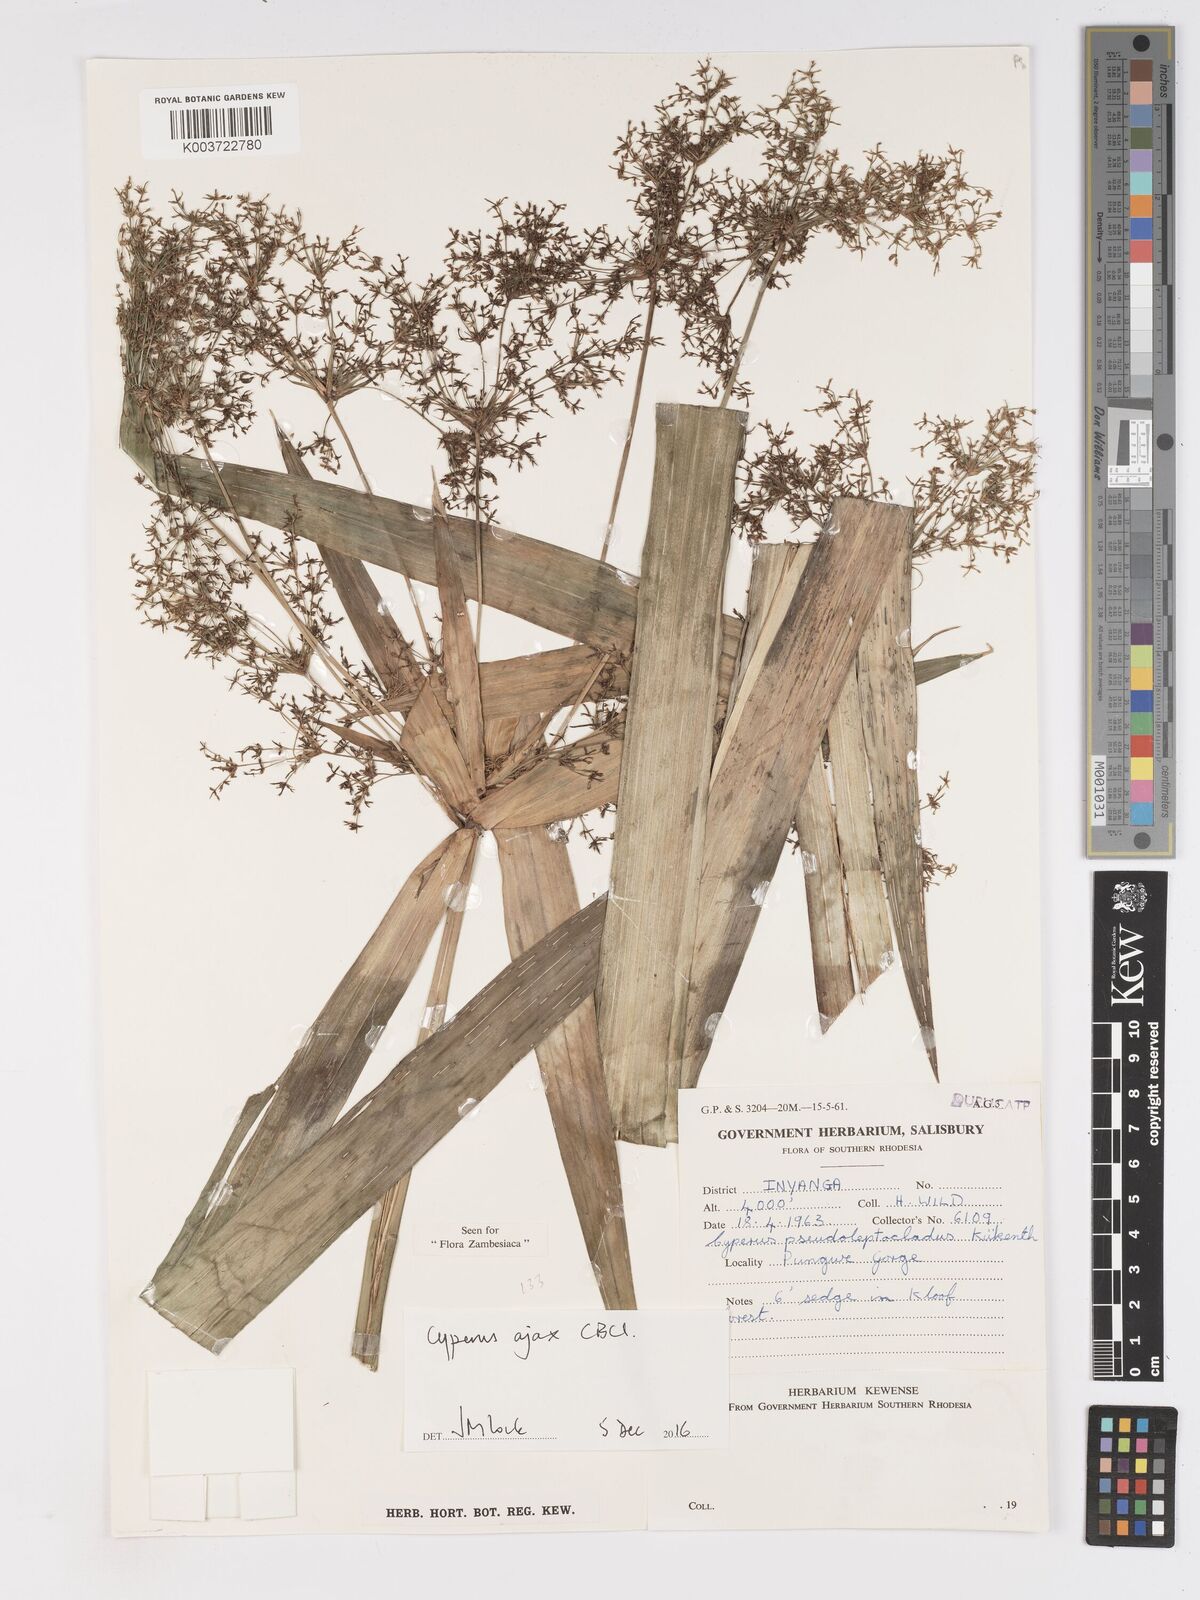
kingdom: Plantae
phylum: Tracheophyta
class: Liliopsida
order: Poales
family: Cyperaceae
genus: Cyperus
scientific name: Cyperus ajax
